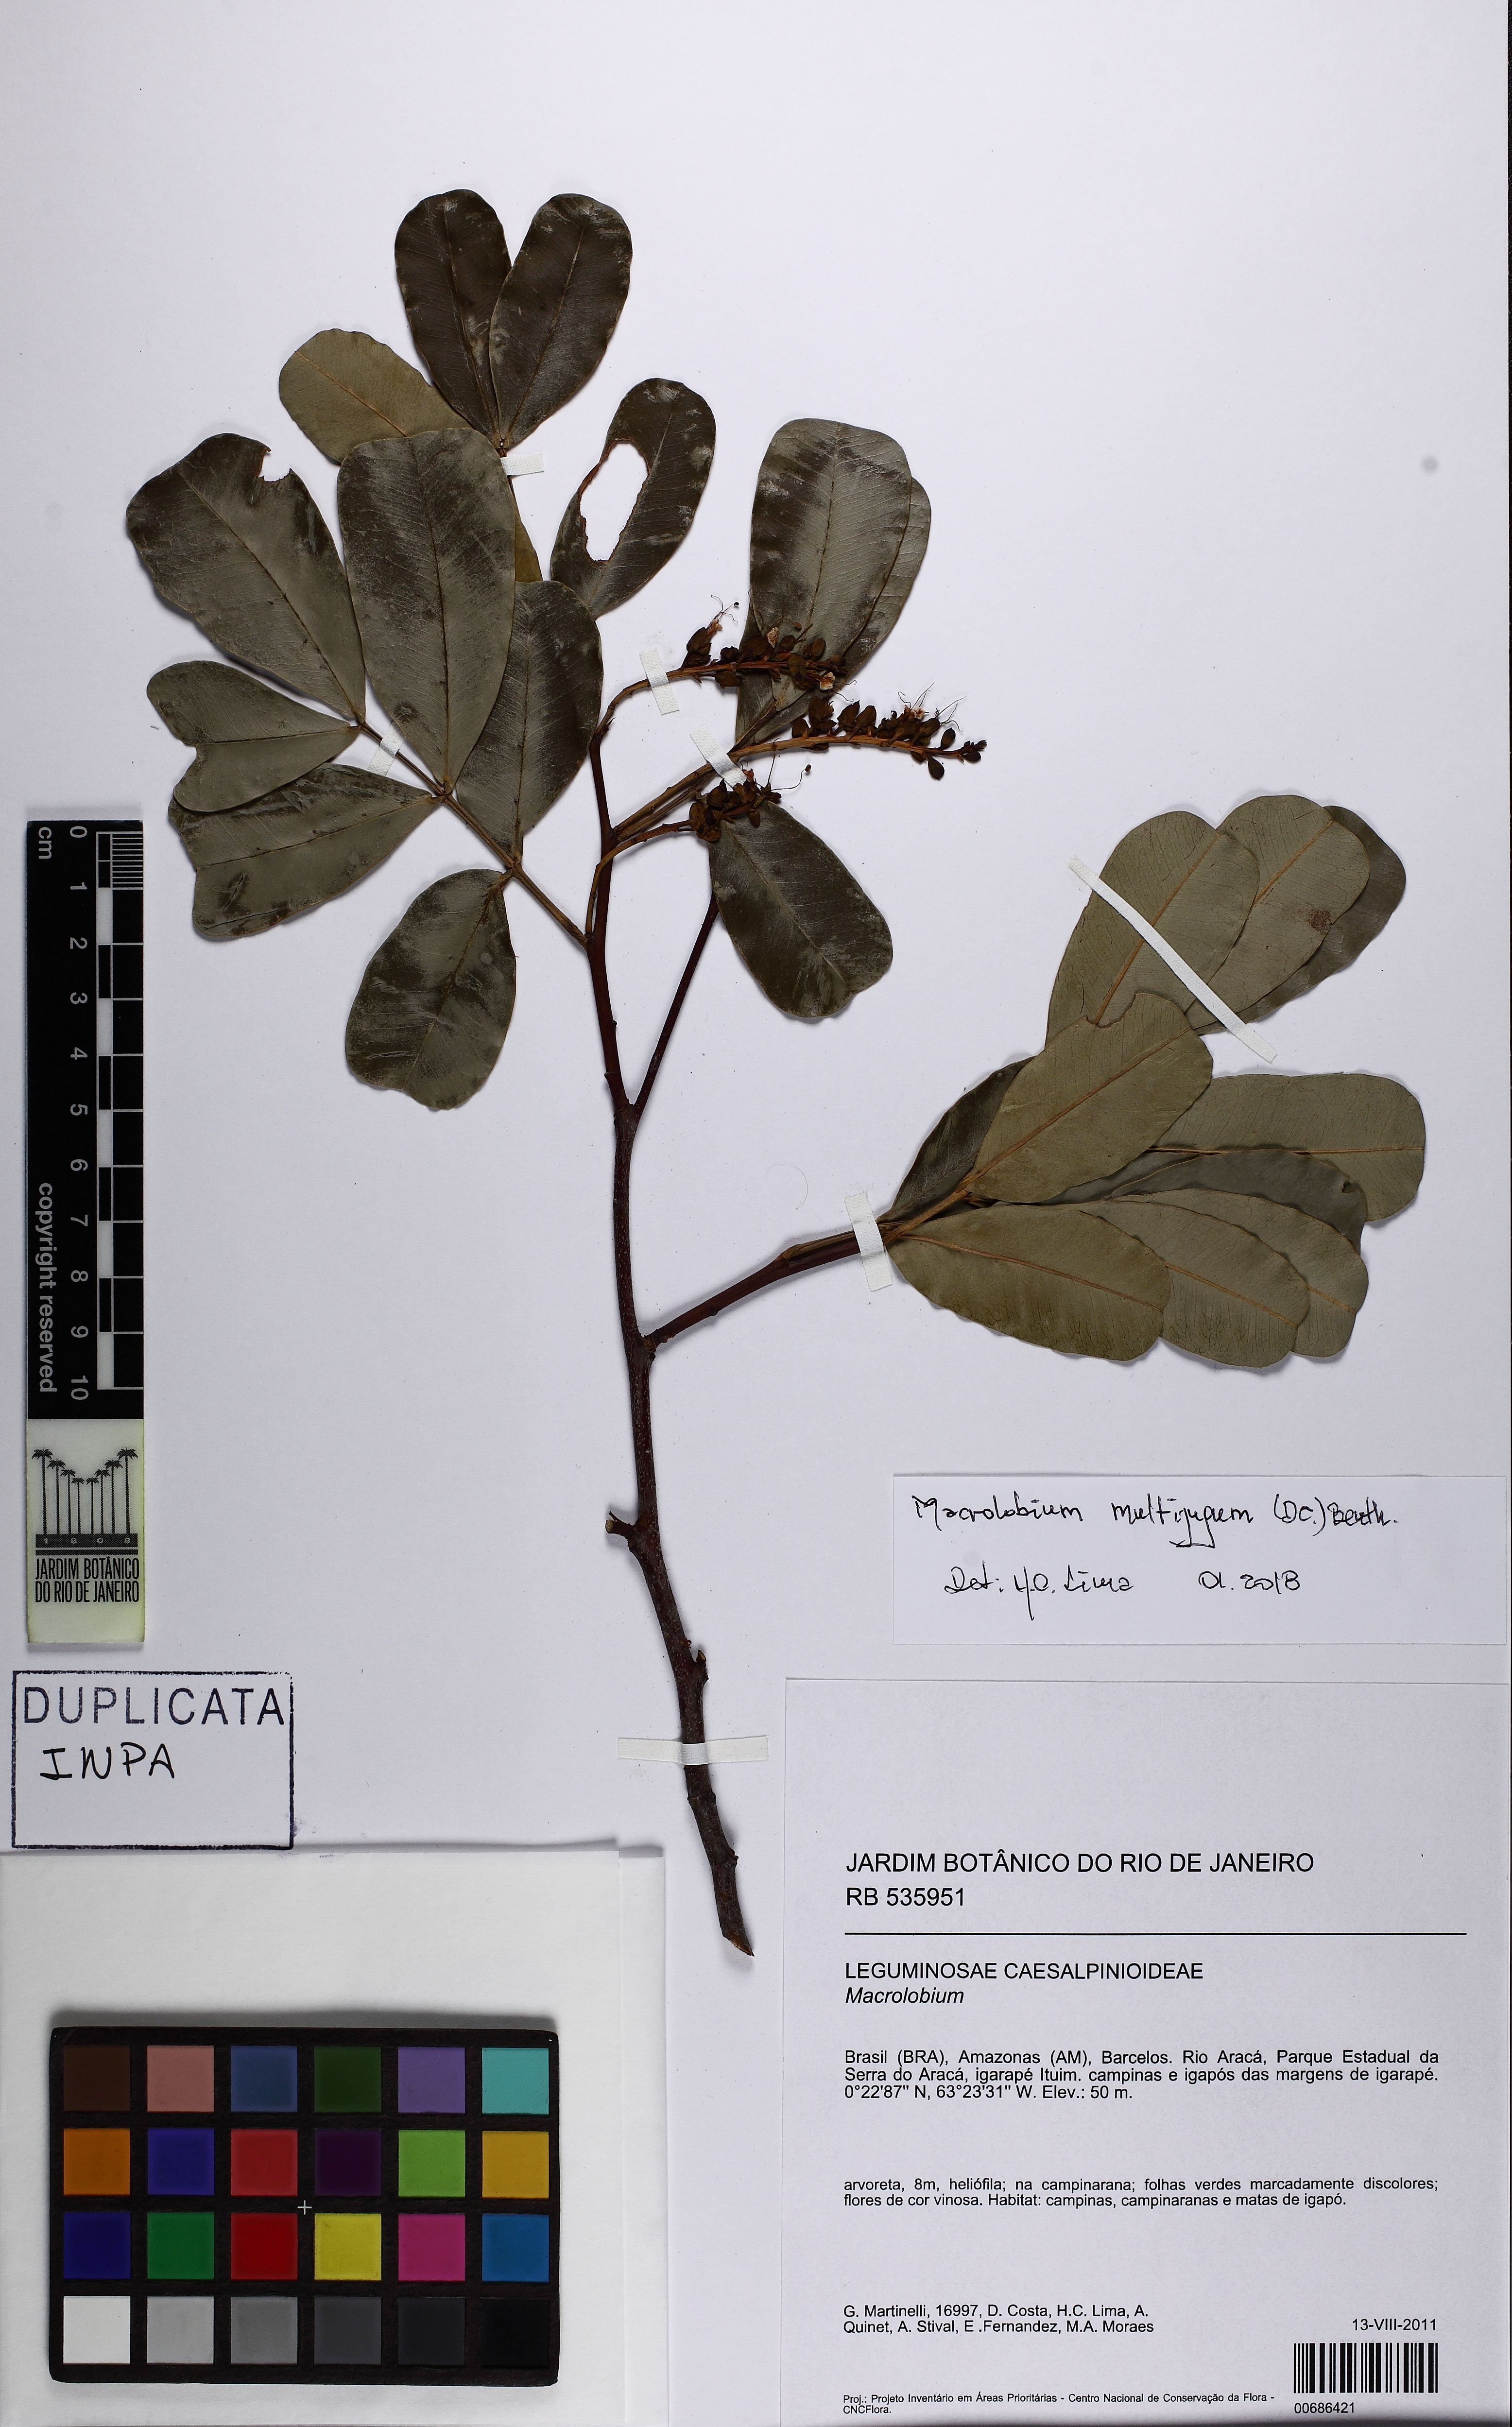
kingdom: Plantae
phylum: Tracheophyta
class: Magnoliopsida
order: Fabales
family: Fabaceae
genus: Macrolobium
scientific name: Macrolobium multijugum
